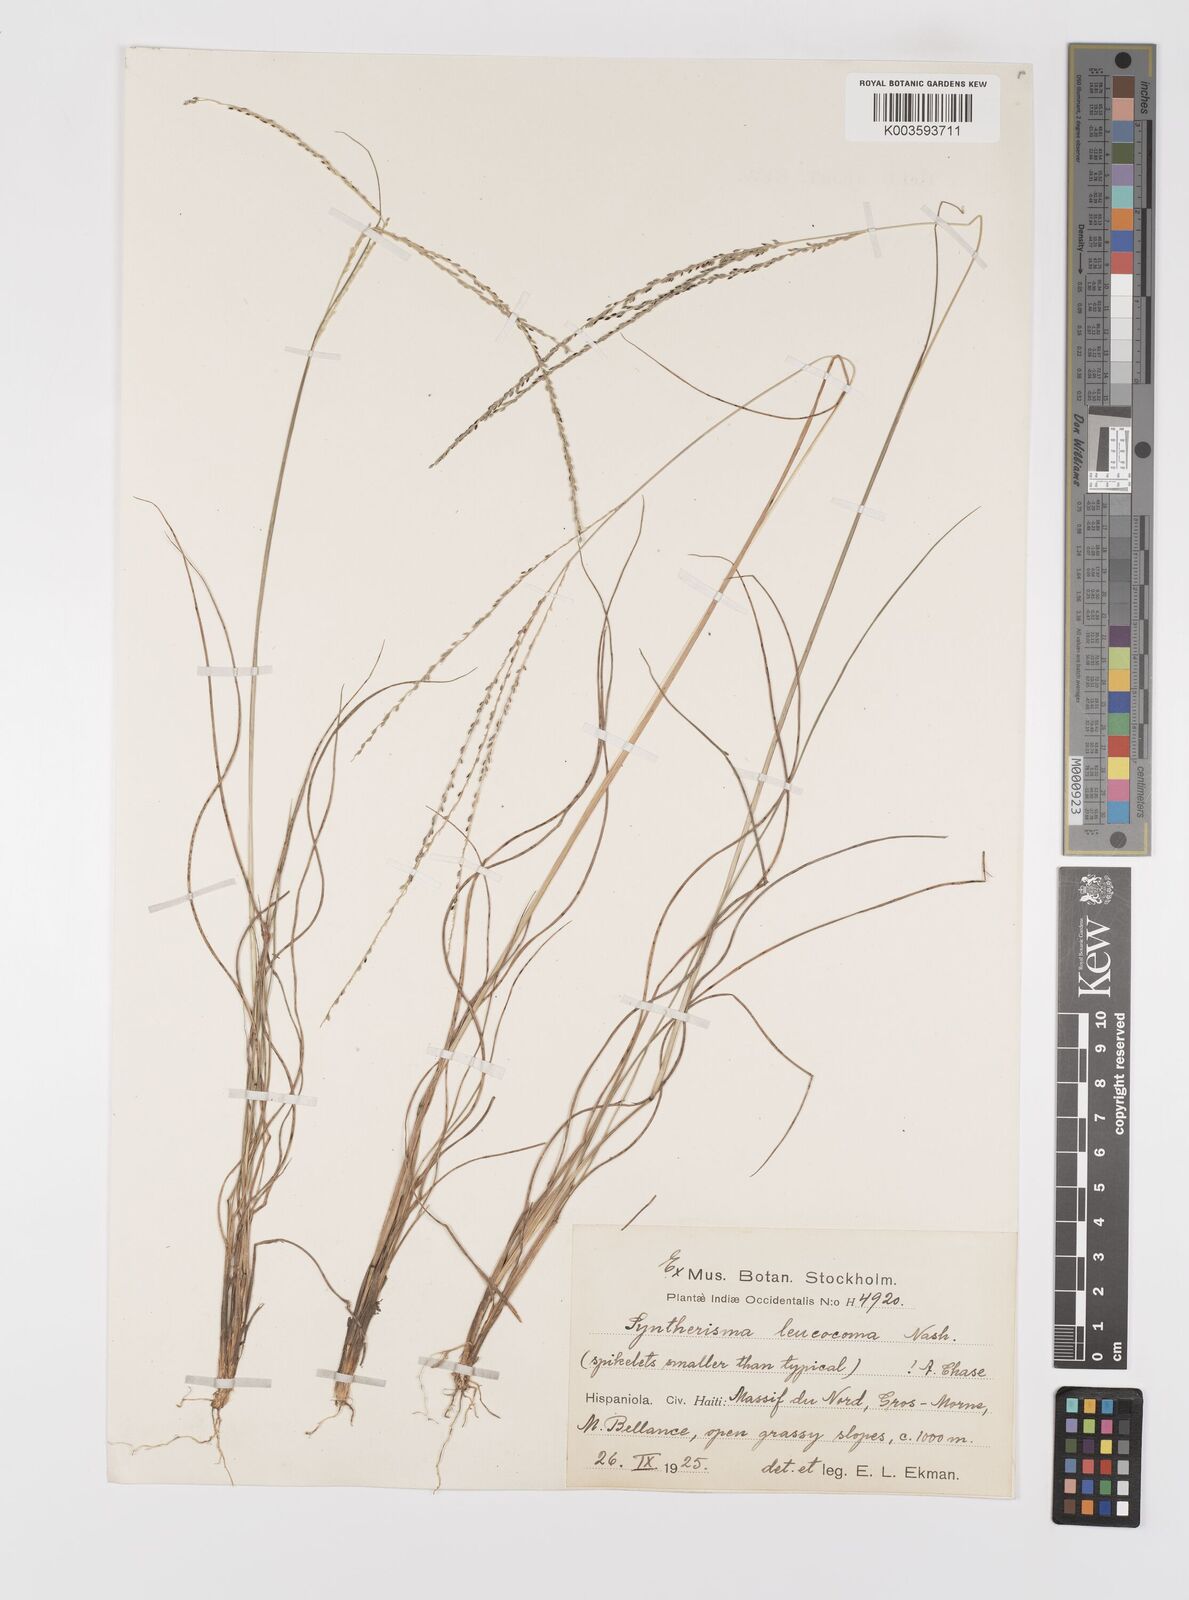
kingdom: Plantae
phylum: Tracheophyta
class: Liliopsida
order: Poales
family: Poaceae
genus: Digitaria
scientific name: Digitaria villosa
